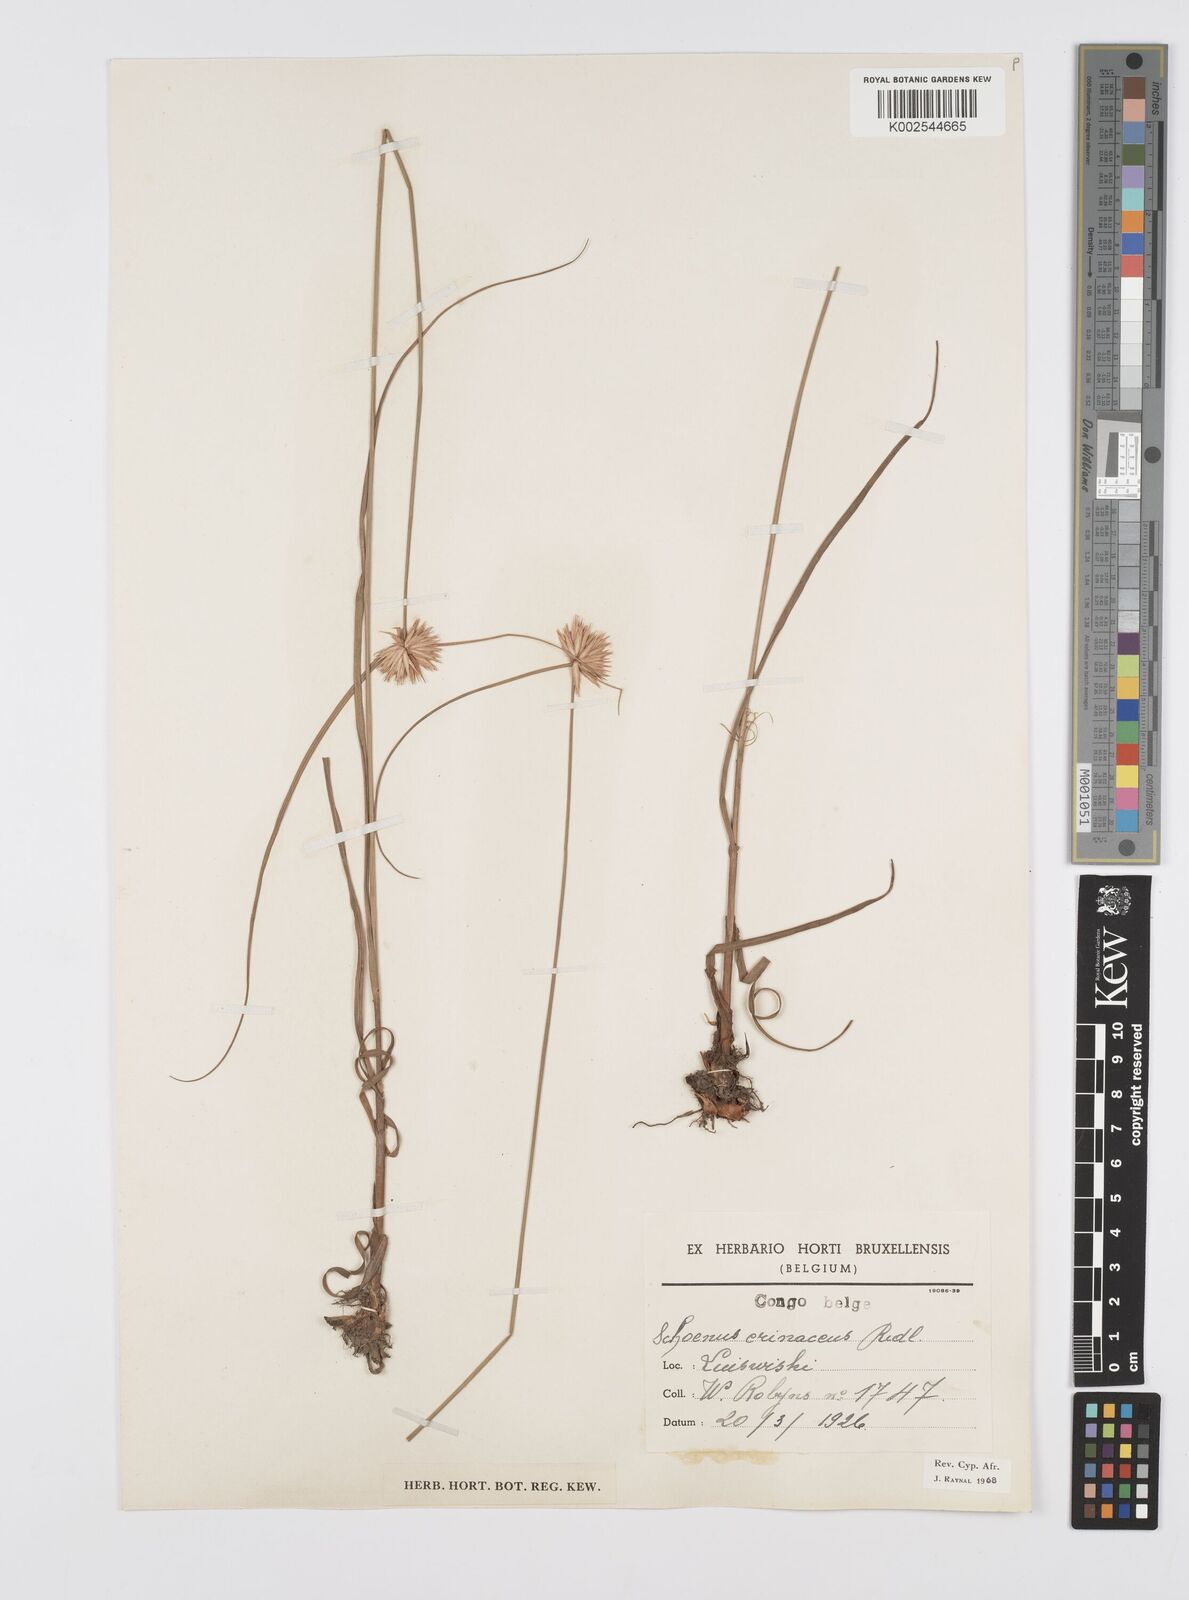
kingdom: Plantae
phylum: Tracheophyta
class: Liliopsida
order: Poales
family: Cyperaceae
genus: Cyperus
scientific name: Cyperus erinaceus
